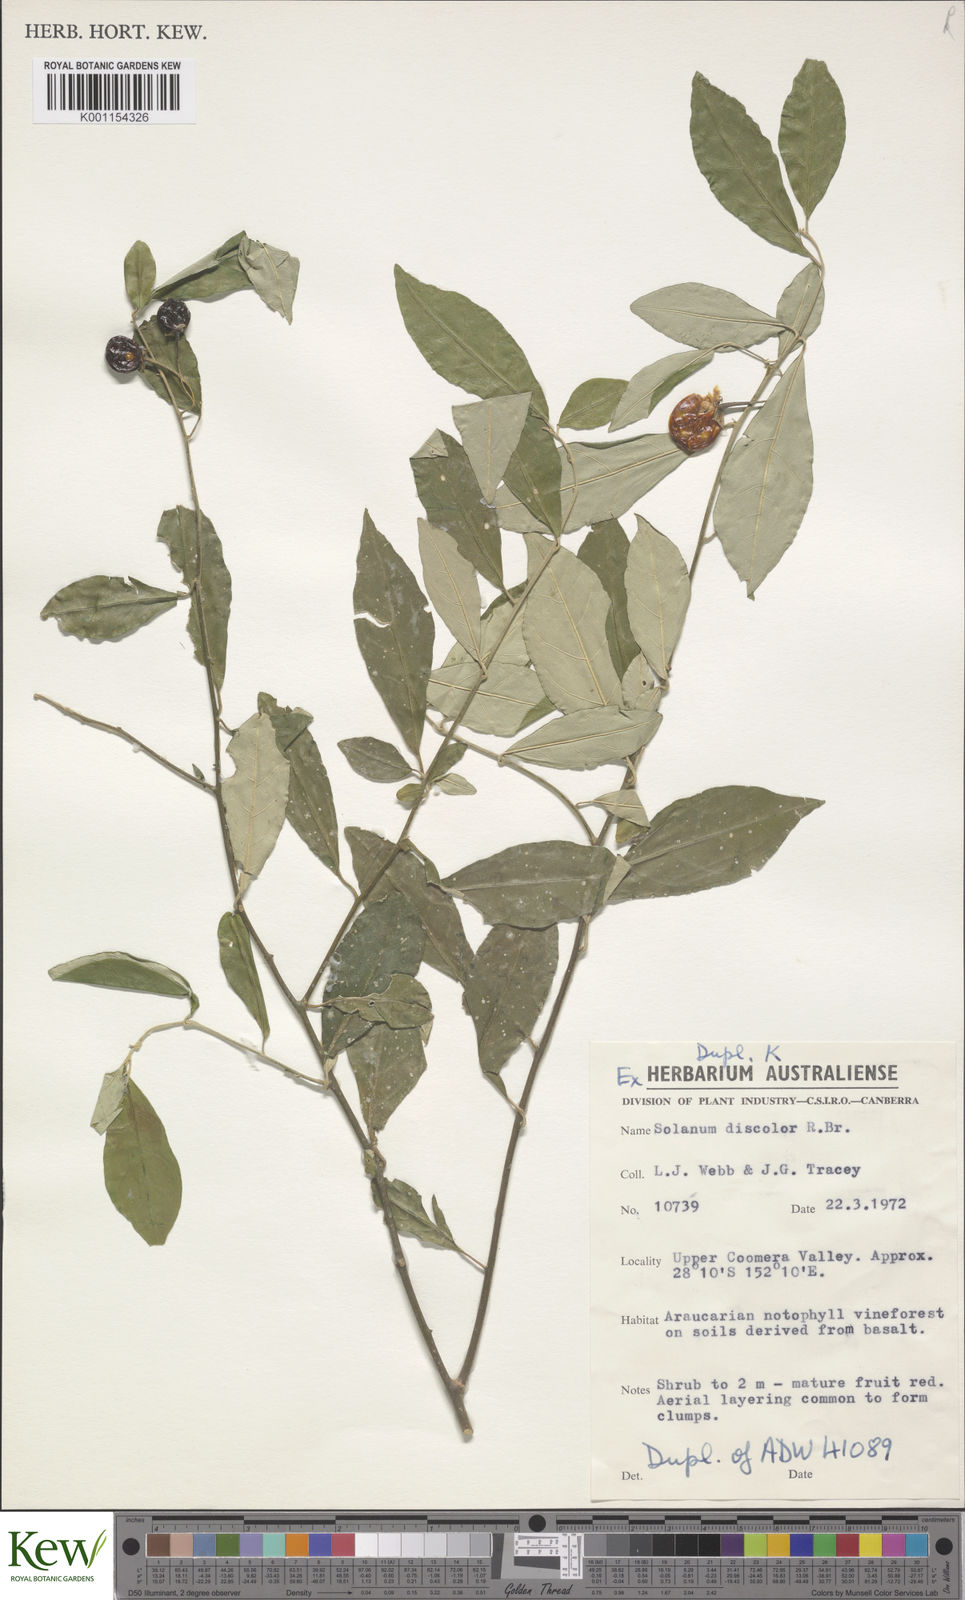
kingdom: Plantae
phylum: Tracheophyta
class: Magnoliopsida
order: Solanales
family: Solanaceae
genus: Solanum
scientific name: Solanum ferocissimum
